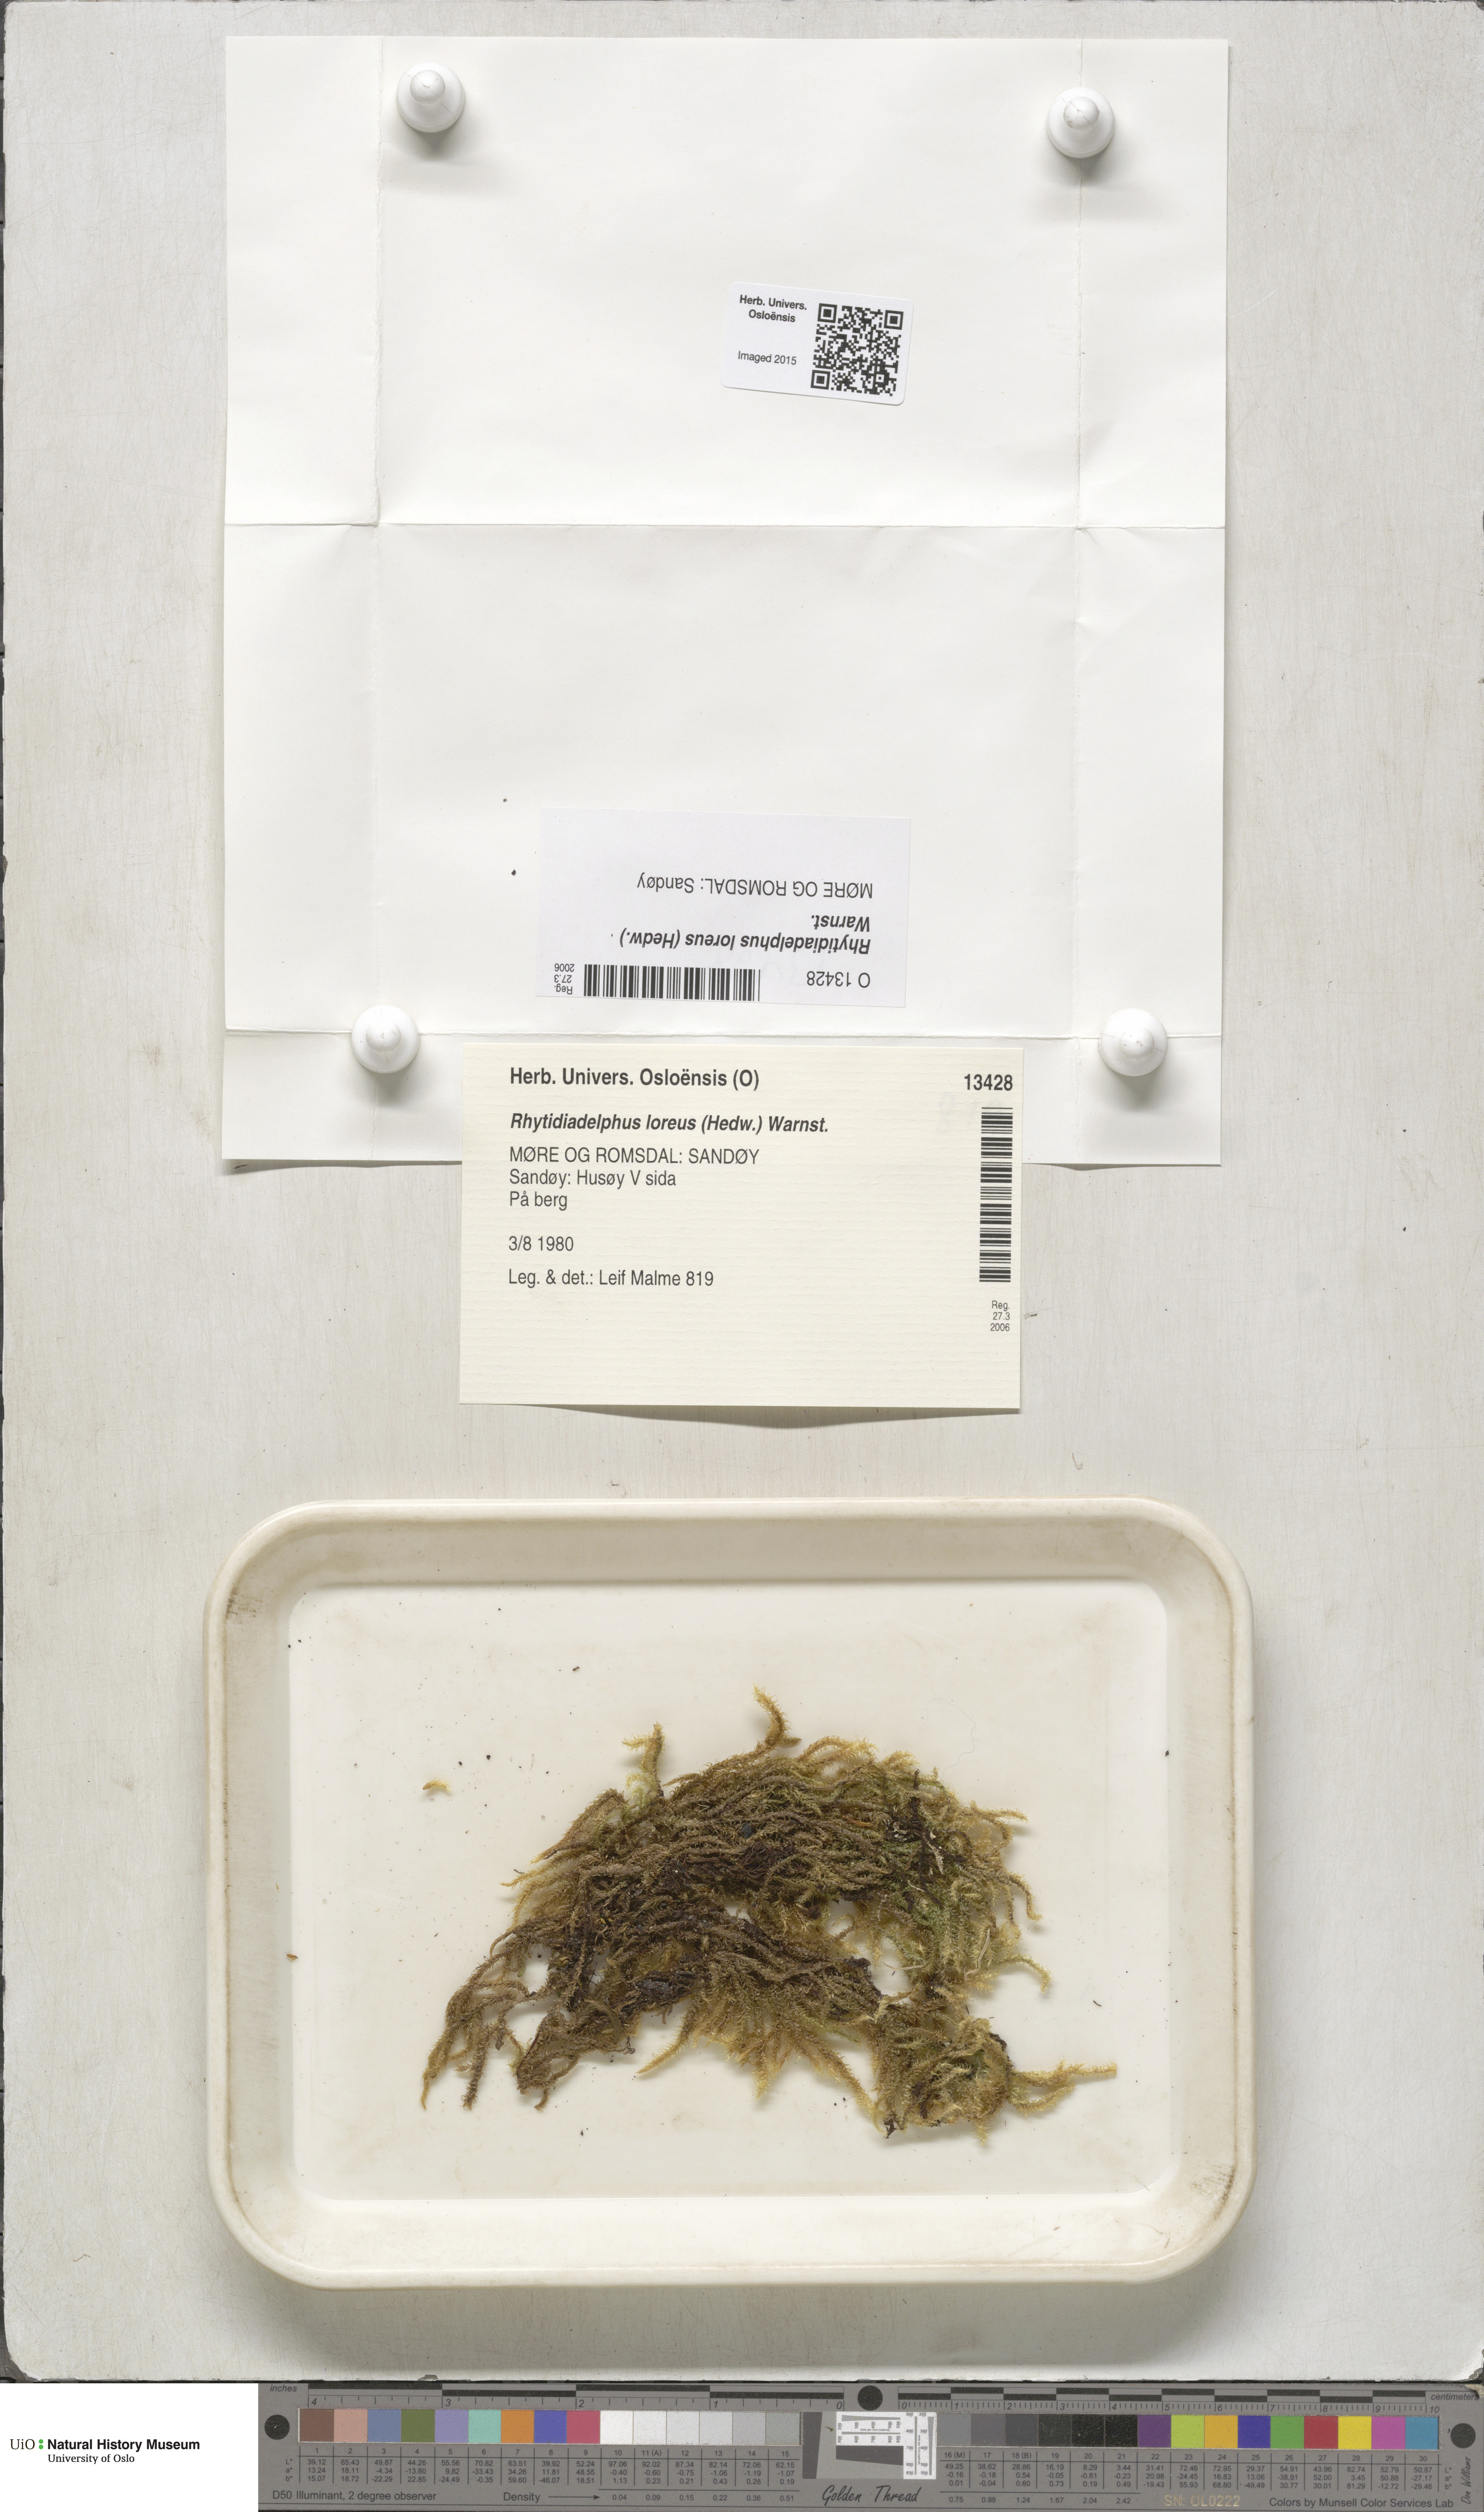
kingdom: Plantae
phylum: Bryophyta
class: Bryopsida
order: Hypnales
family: Hylocomiaceae
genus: Rhytidiadelphus
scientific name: Rhytidiadelphus loreus
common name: Lanky moss
